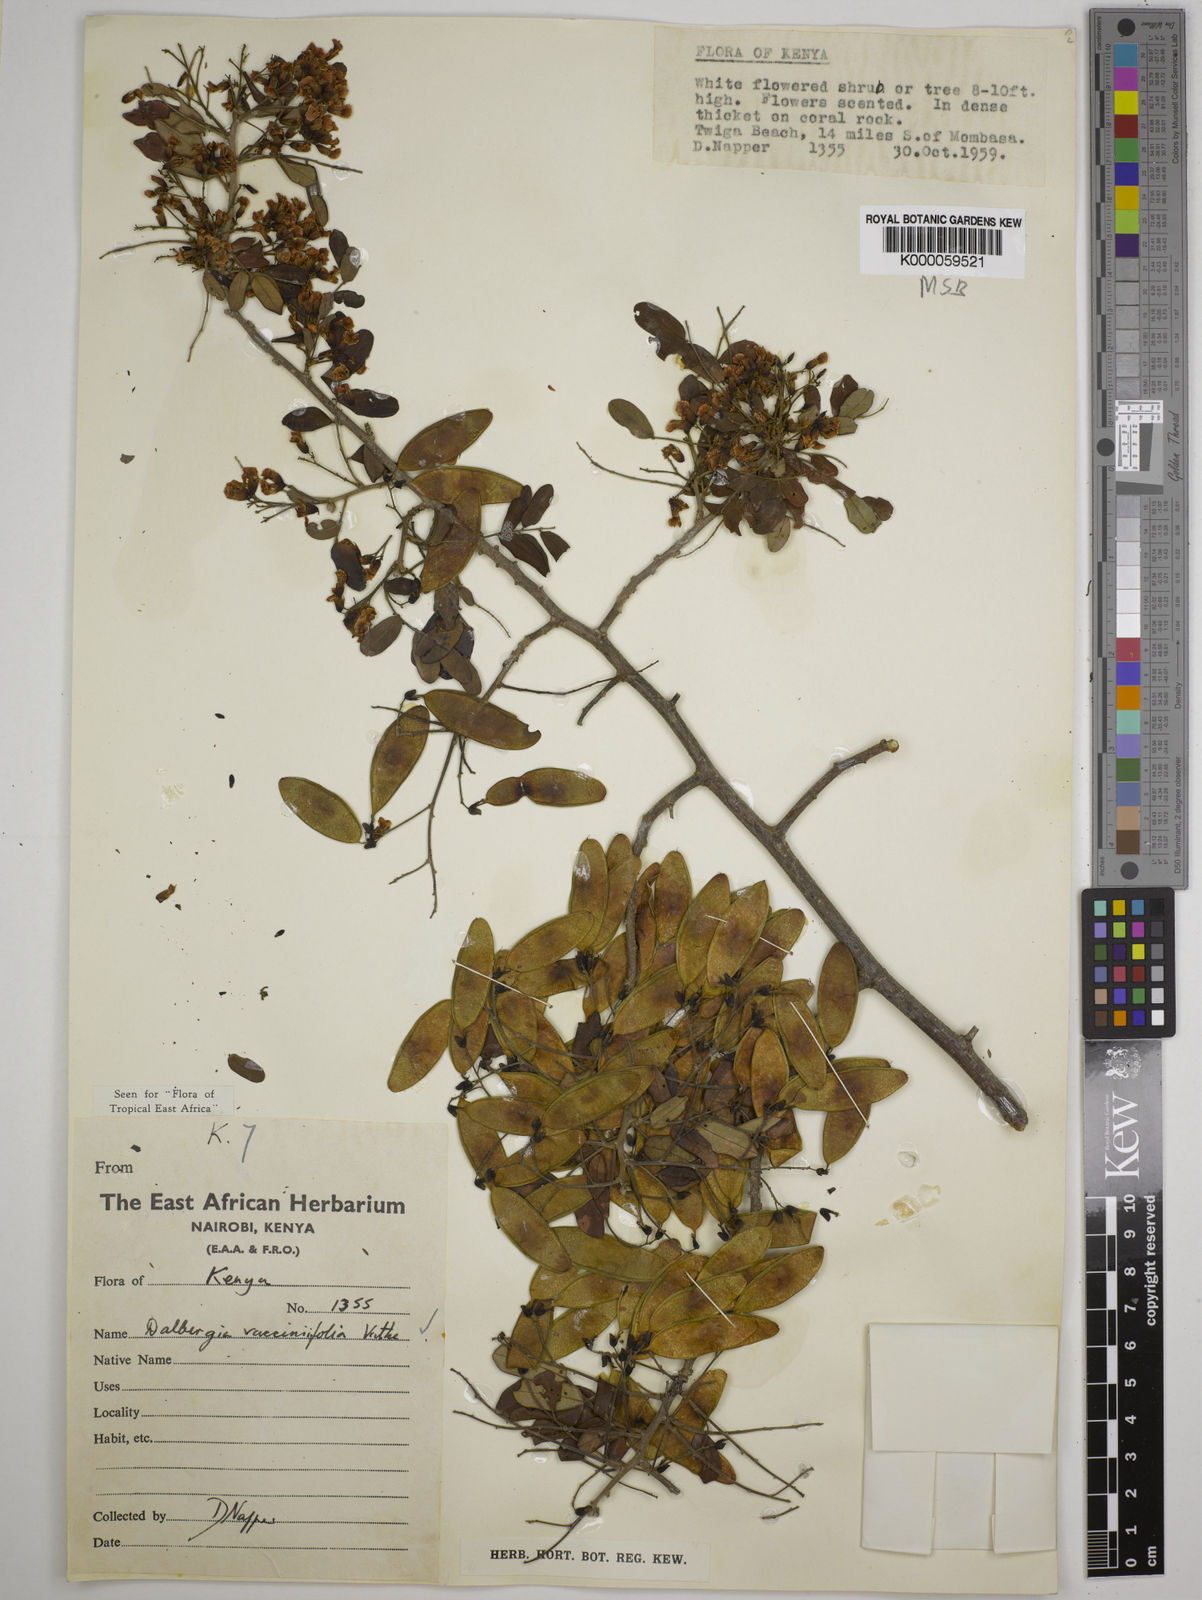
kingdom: Plantae
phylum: Tracheophyta
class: Magnoliopsida
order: Fabales
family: Fabaceae
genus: Dalbergia
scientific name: Dalbergia vacciniifolia
